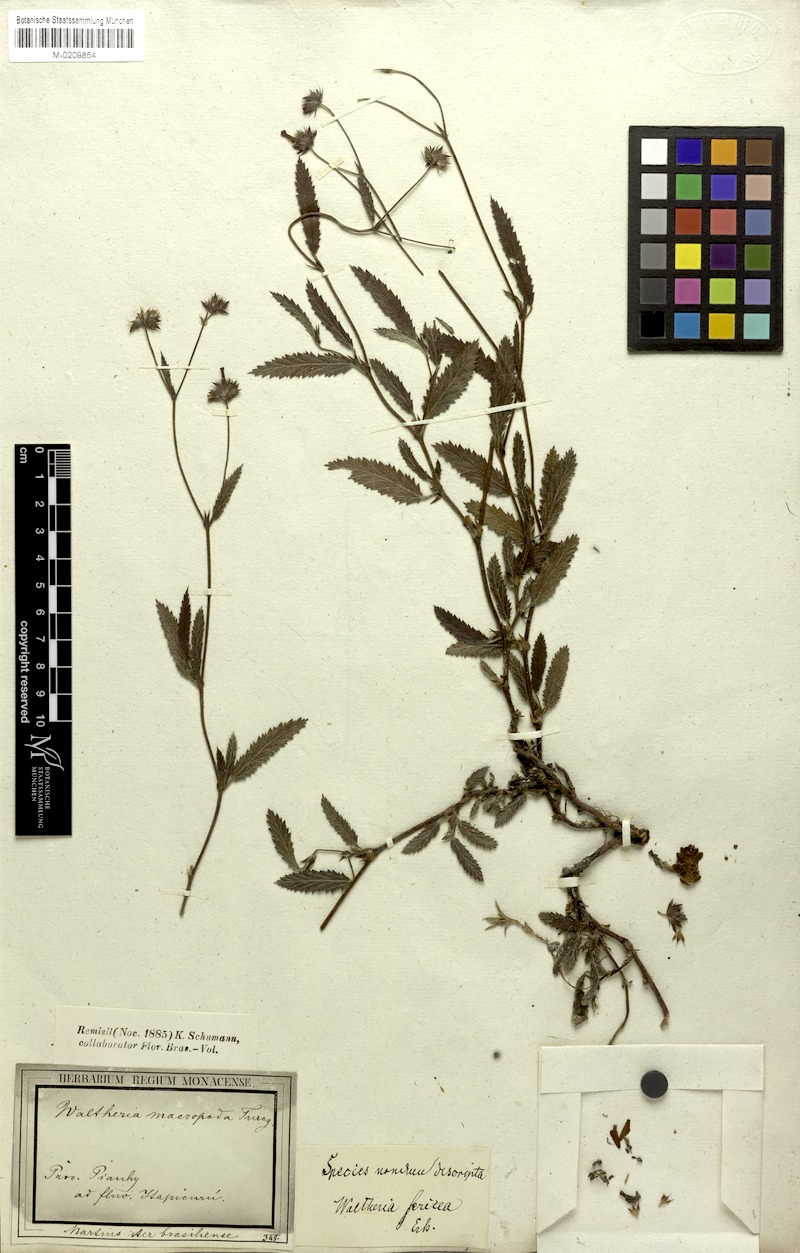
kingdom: Plantae
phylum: Tracheophyta
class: Magnoliopsida
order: Malvales
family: Malvaceae
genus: Waltheria
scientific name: Waltheria bracteosa
